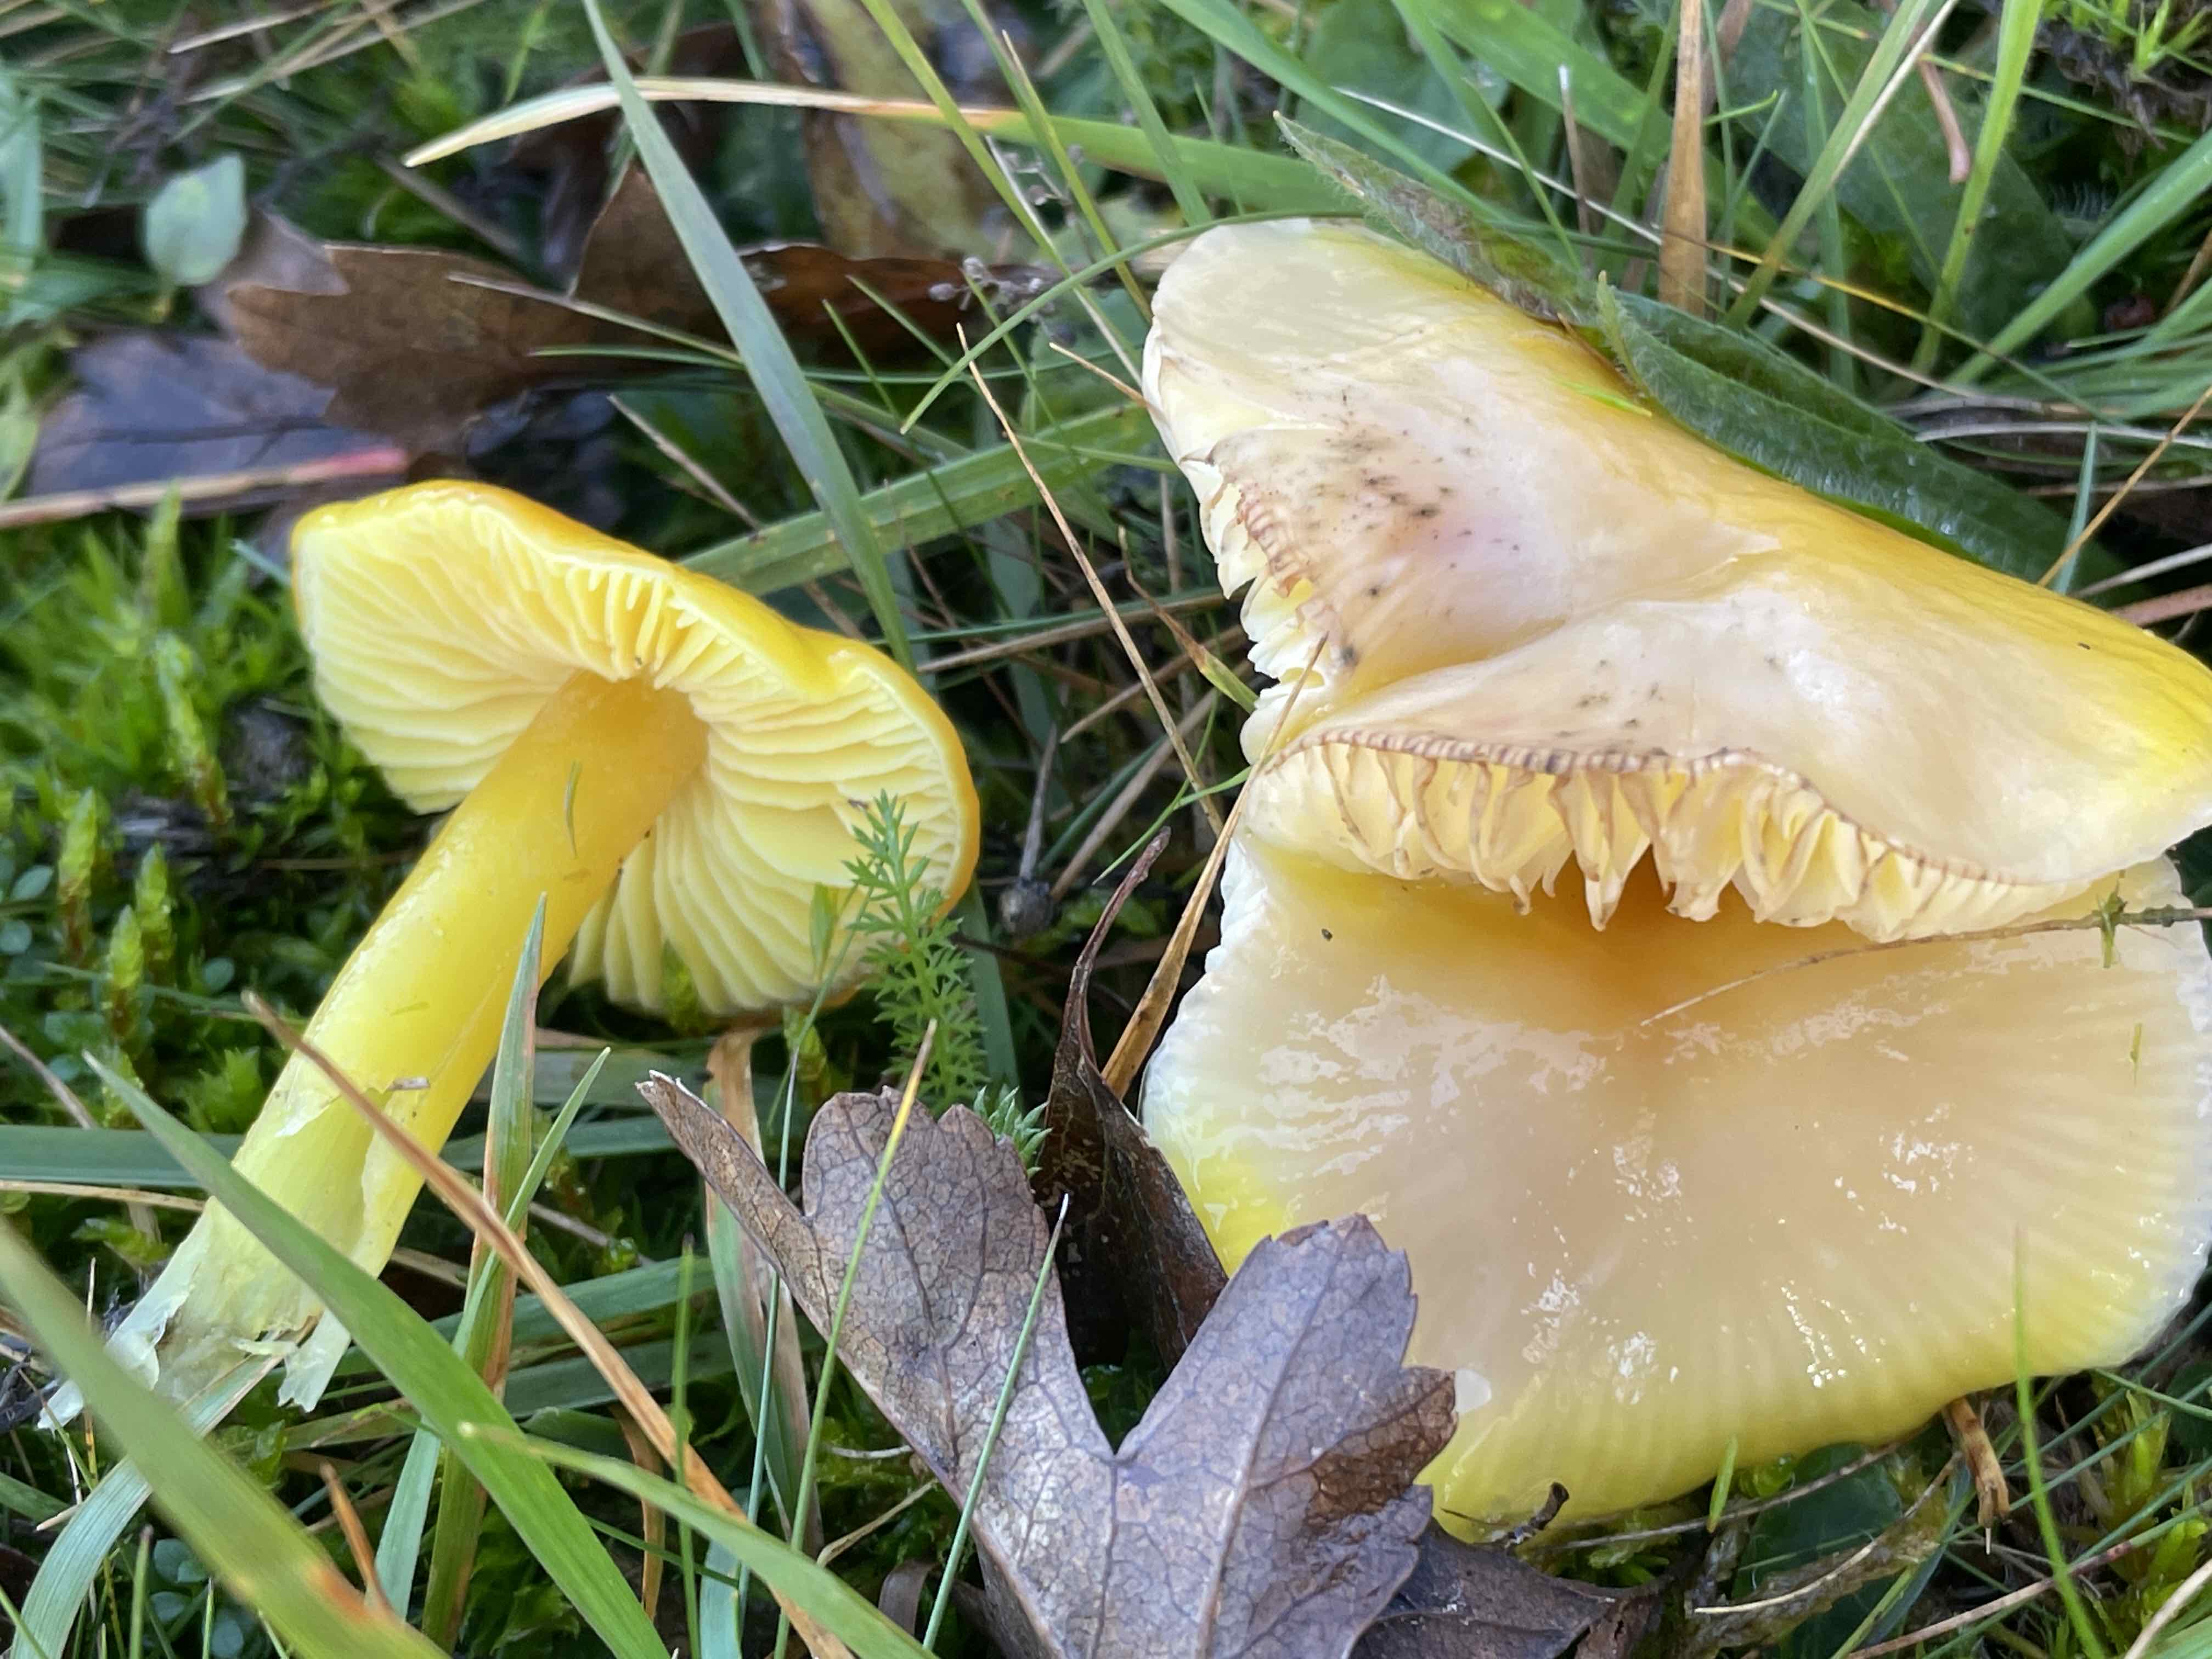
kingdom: Fungi
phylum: Basidiomycota
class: Agaricomycetes
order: Agaricales
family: Hygrophoraceae
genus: Hygrocybe
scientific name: Hygrocybe chlorophana
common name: gul vokshat
